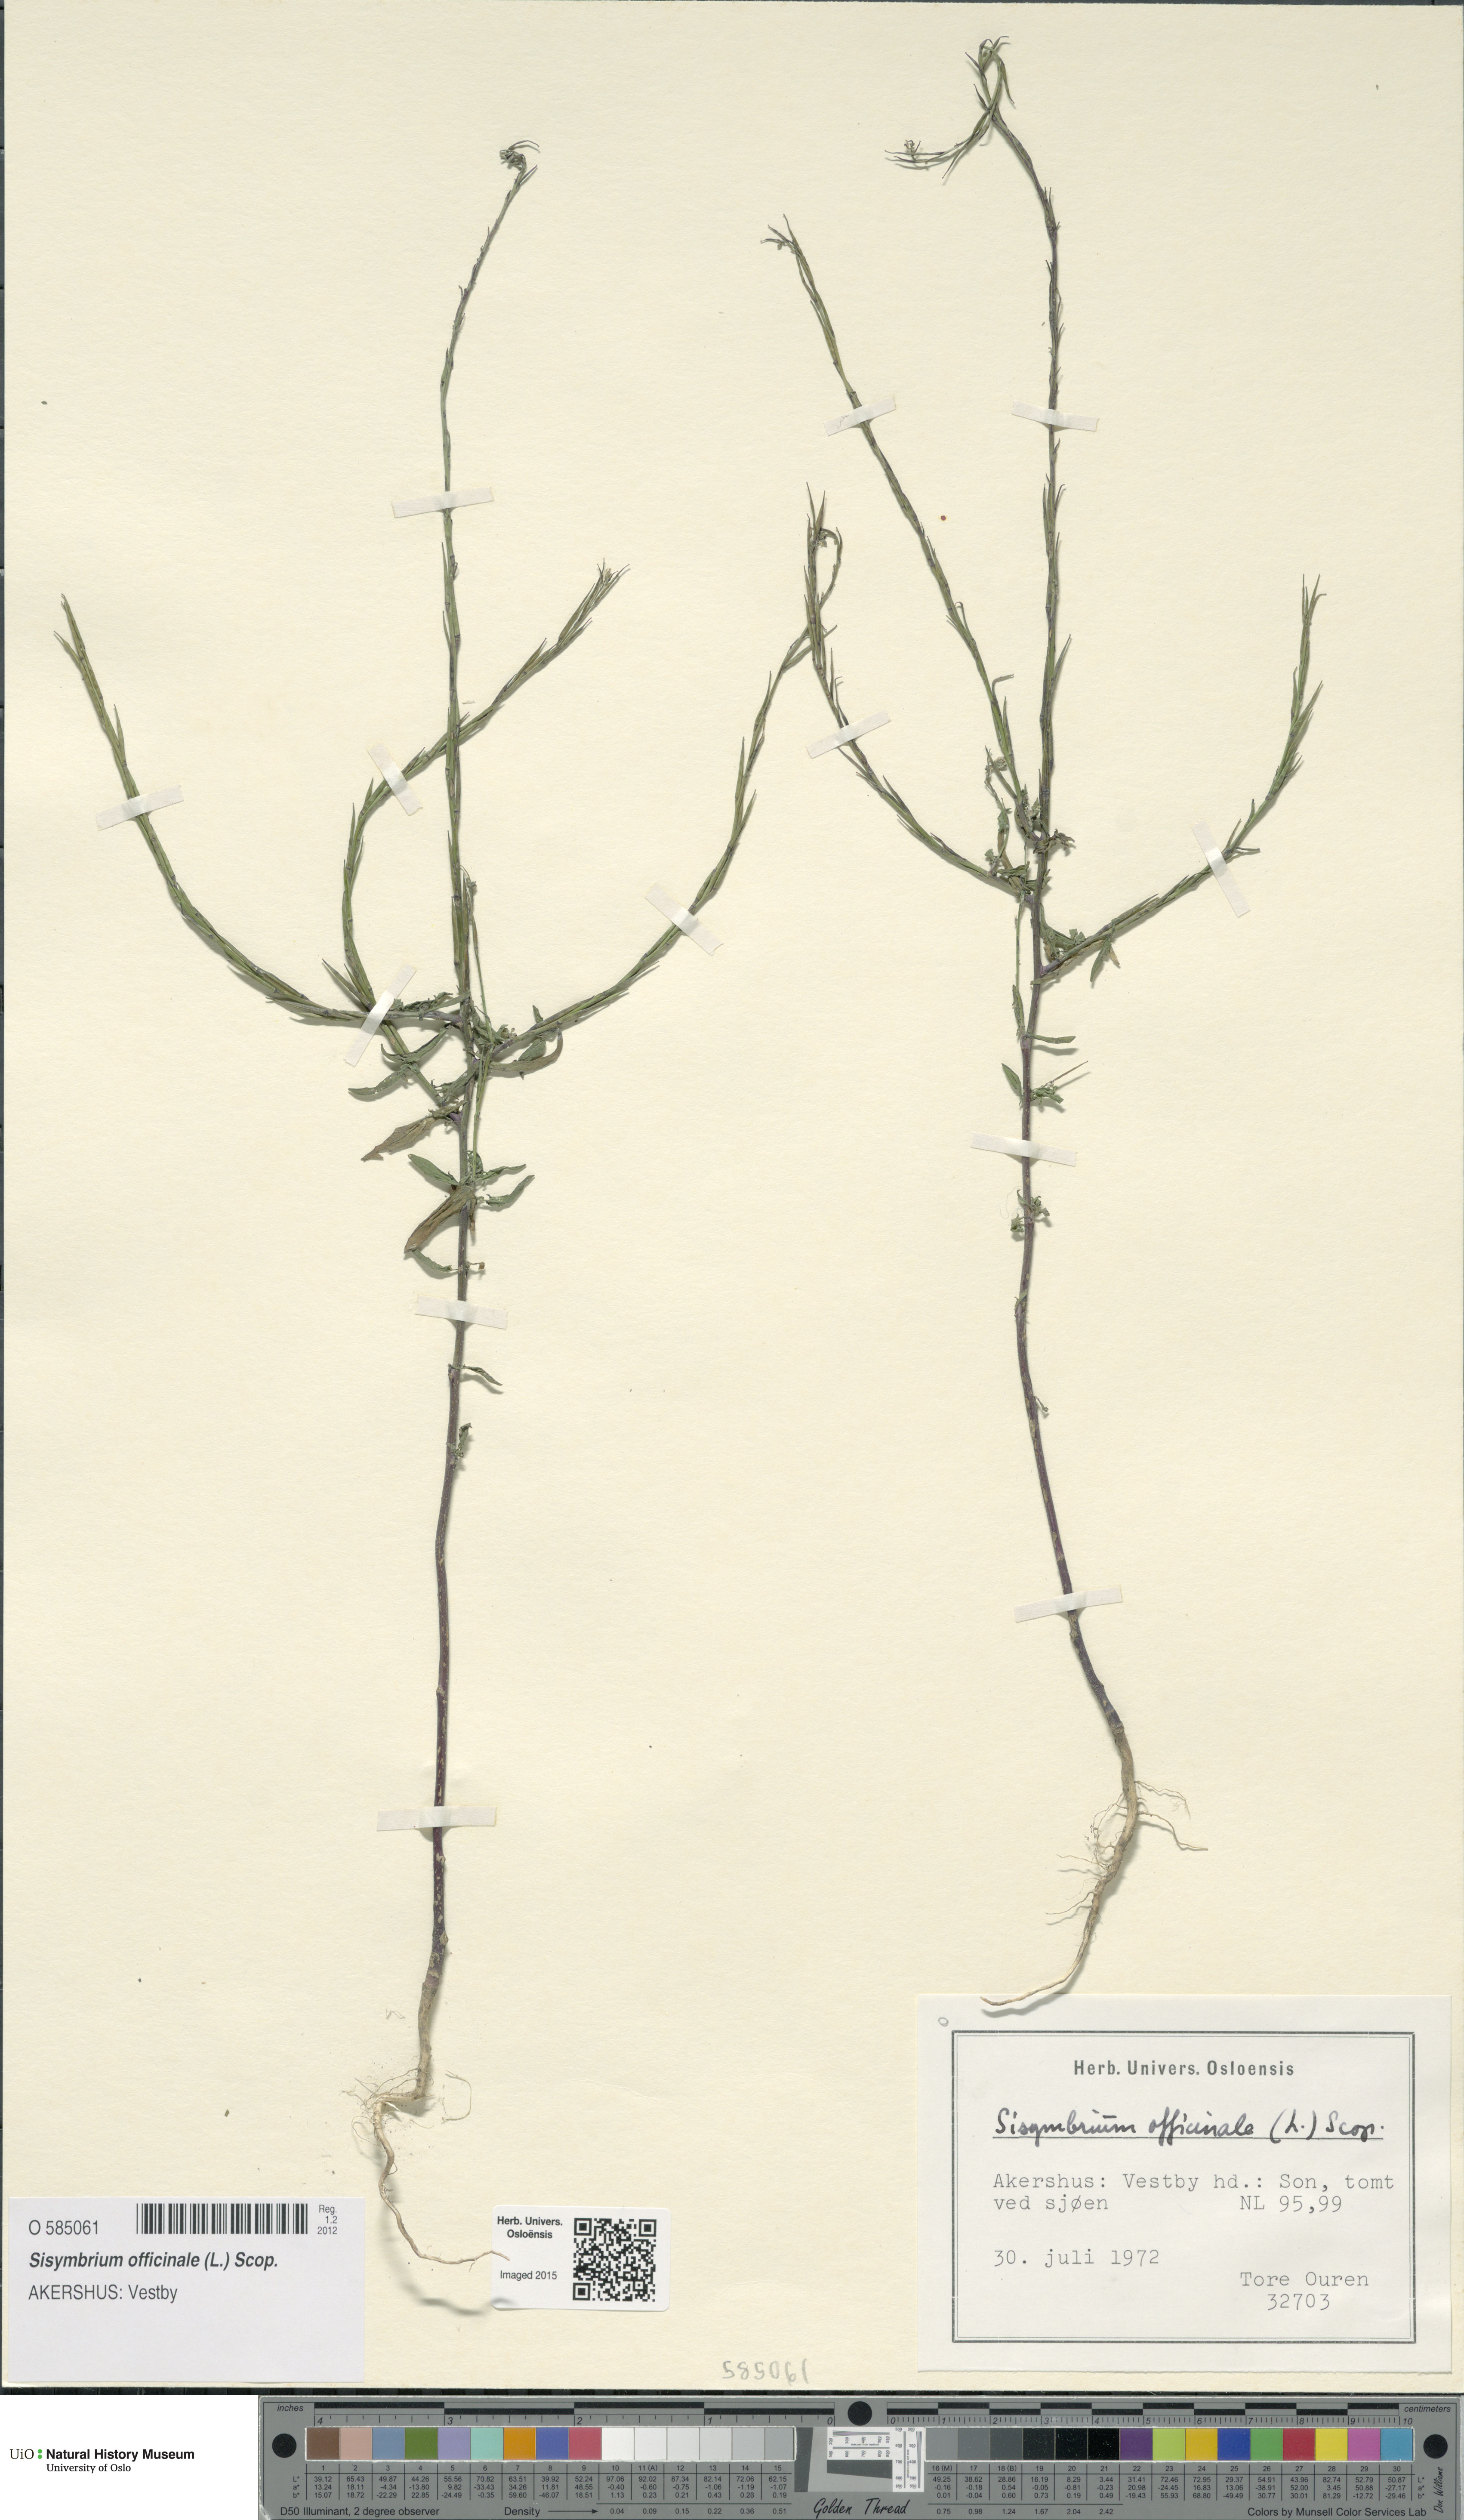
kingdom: Plantae
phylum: Tracheophyta
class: Magnoliopsida
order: Brassicales
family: Brassicaceae
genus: Sisymbrium
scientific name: Sisymbrium officinale
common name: Hedge mustard
